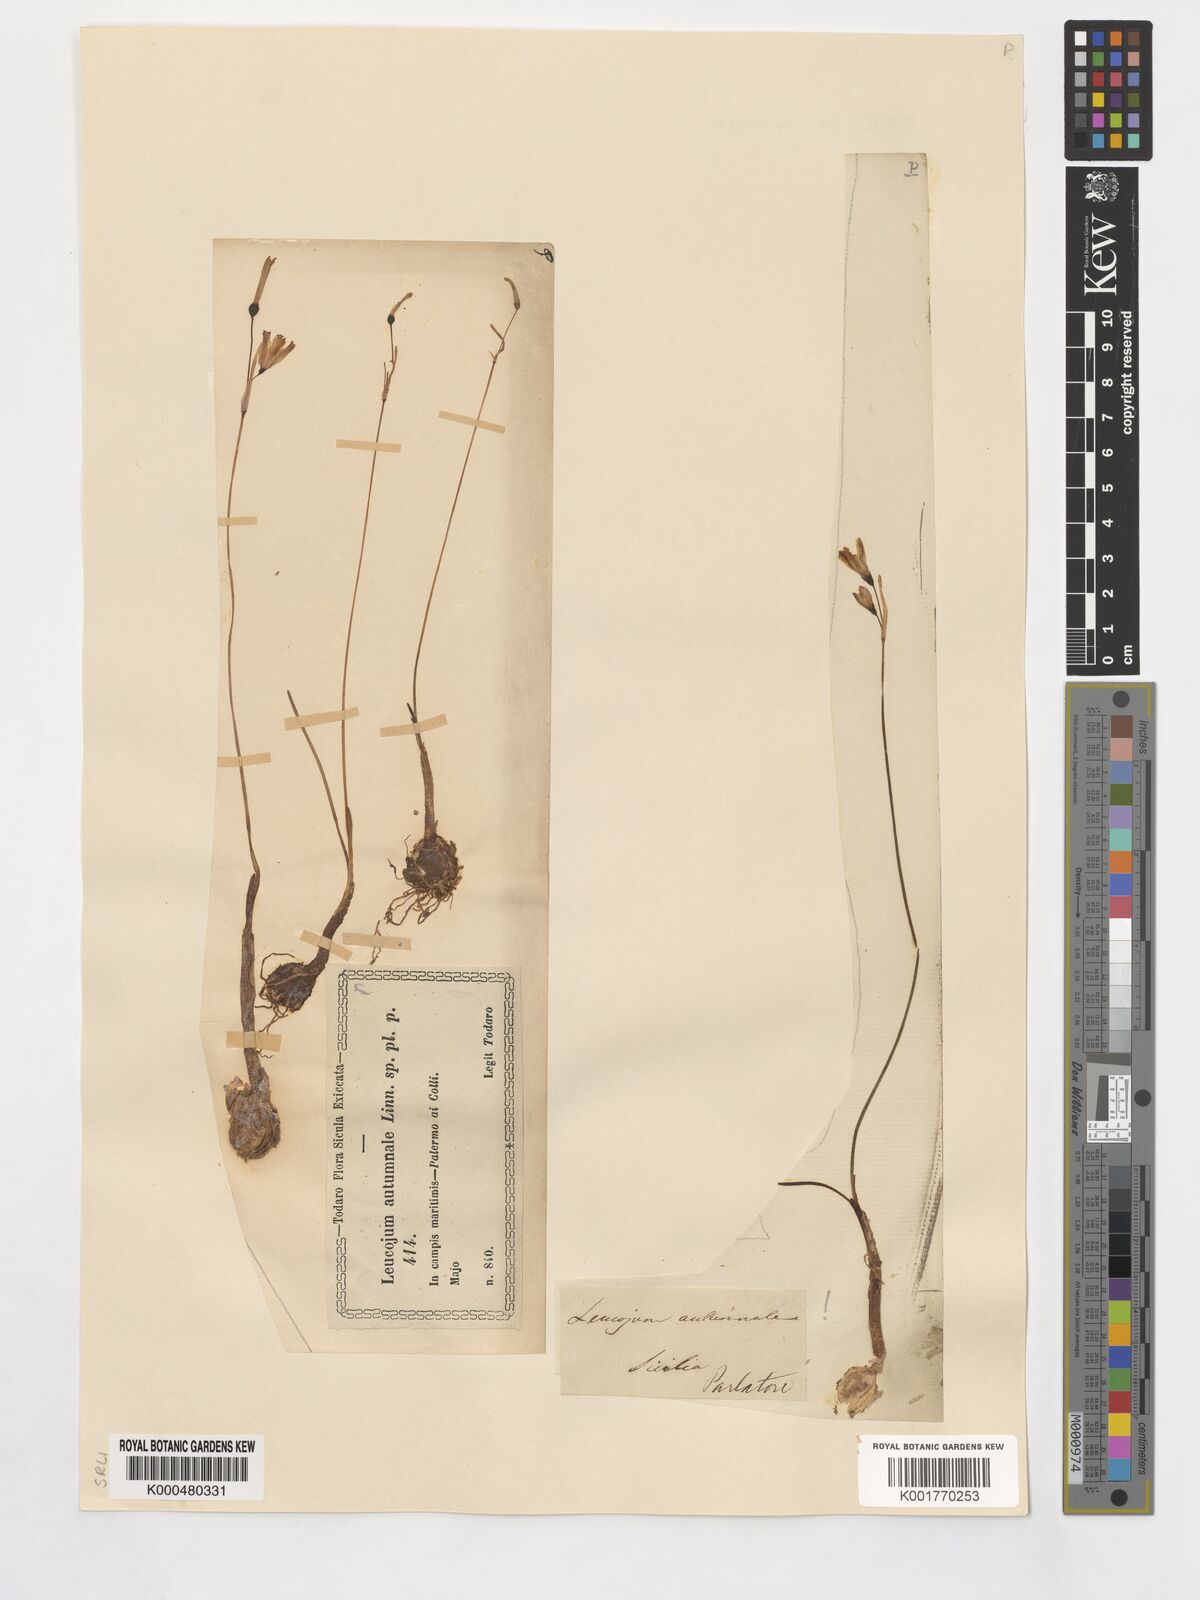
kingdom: Plantae
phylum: Tracheophyta
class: Liliopsida
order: Asparagales
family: Amaryllidaceae
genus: Acis
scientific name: Acis autumnalis
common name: Autumn snowflake
